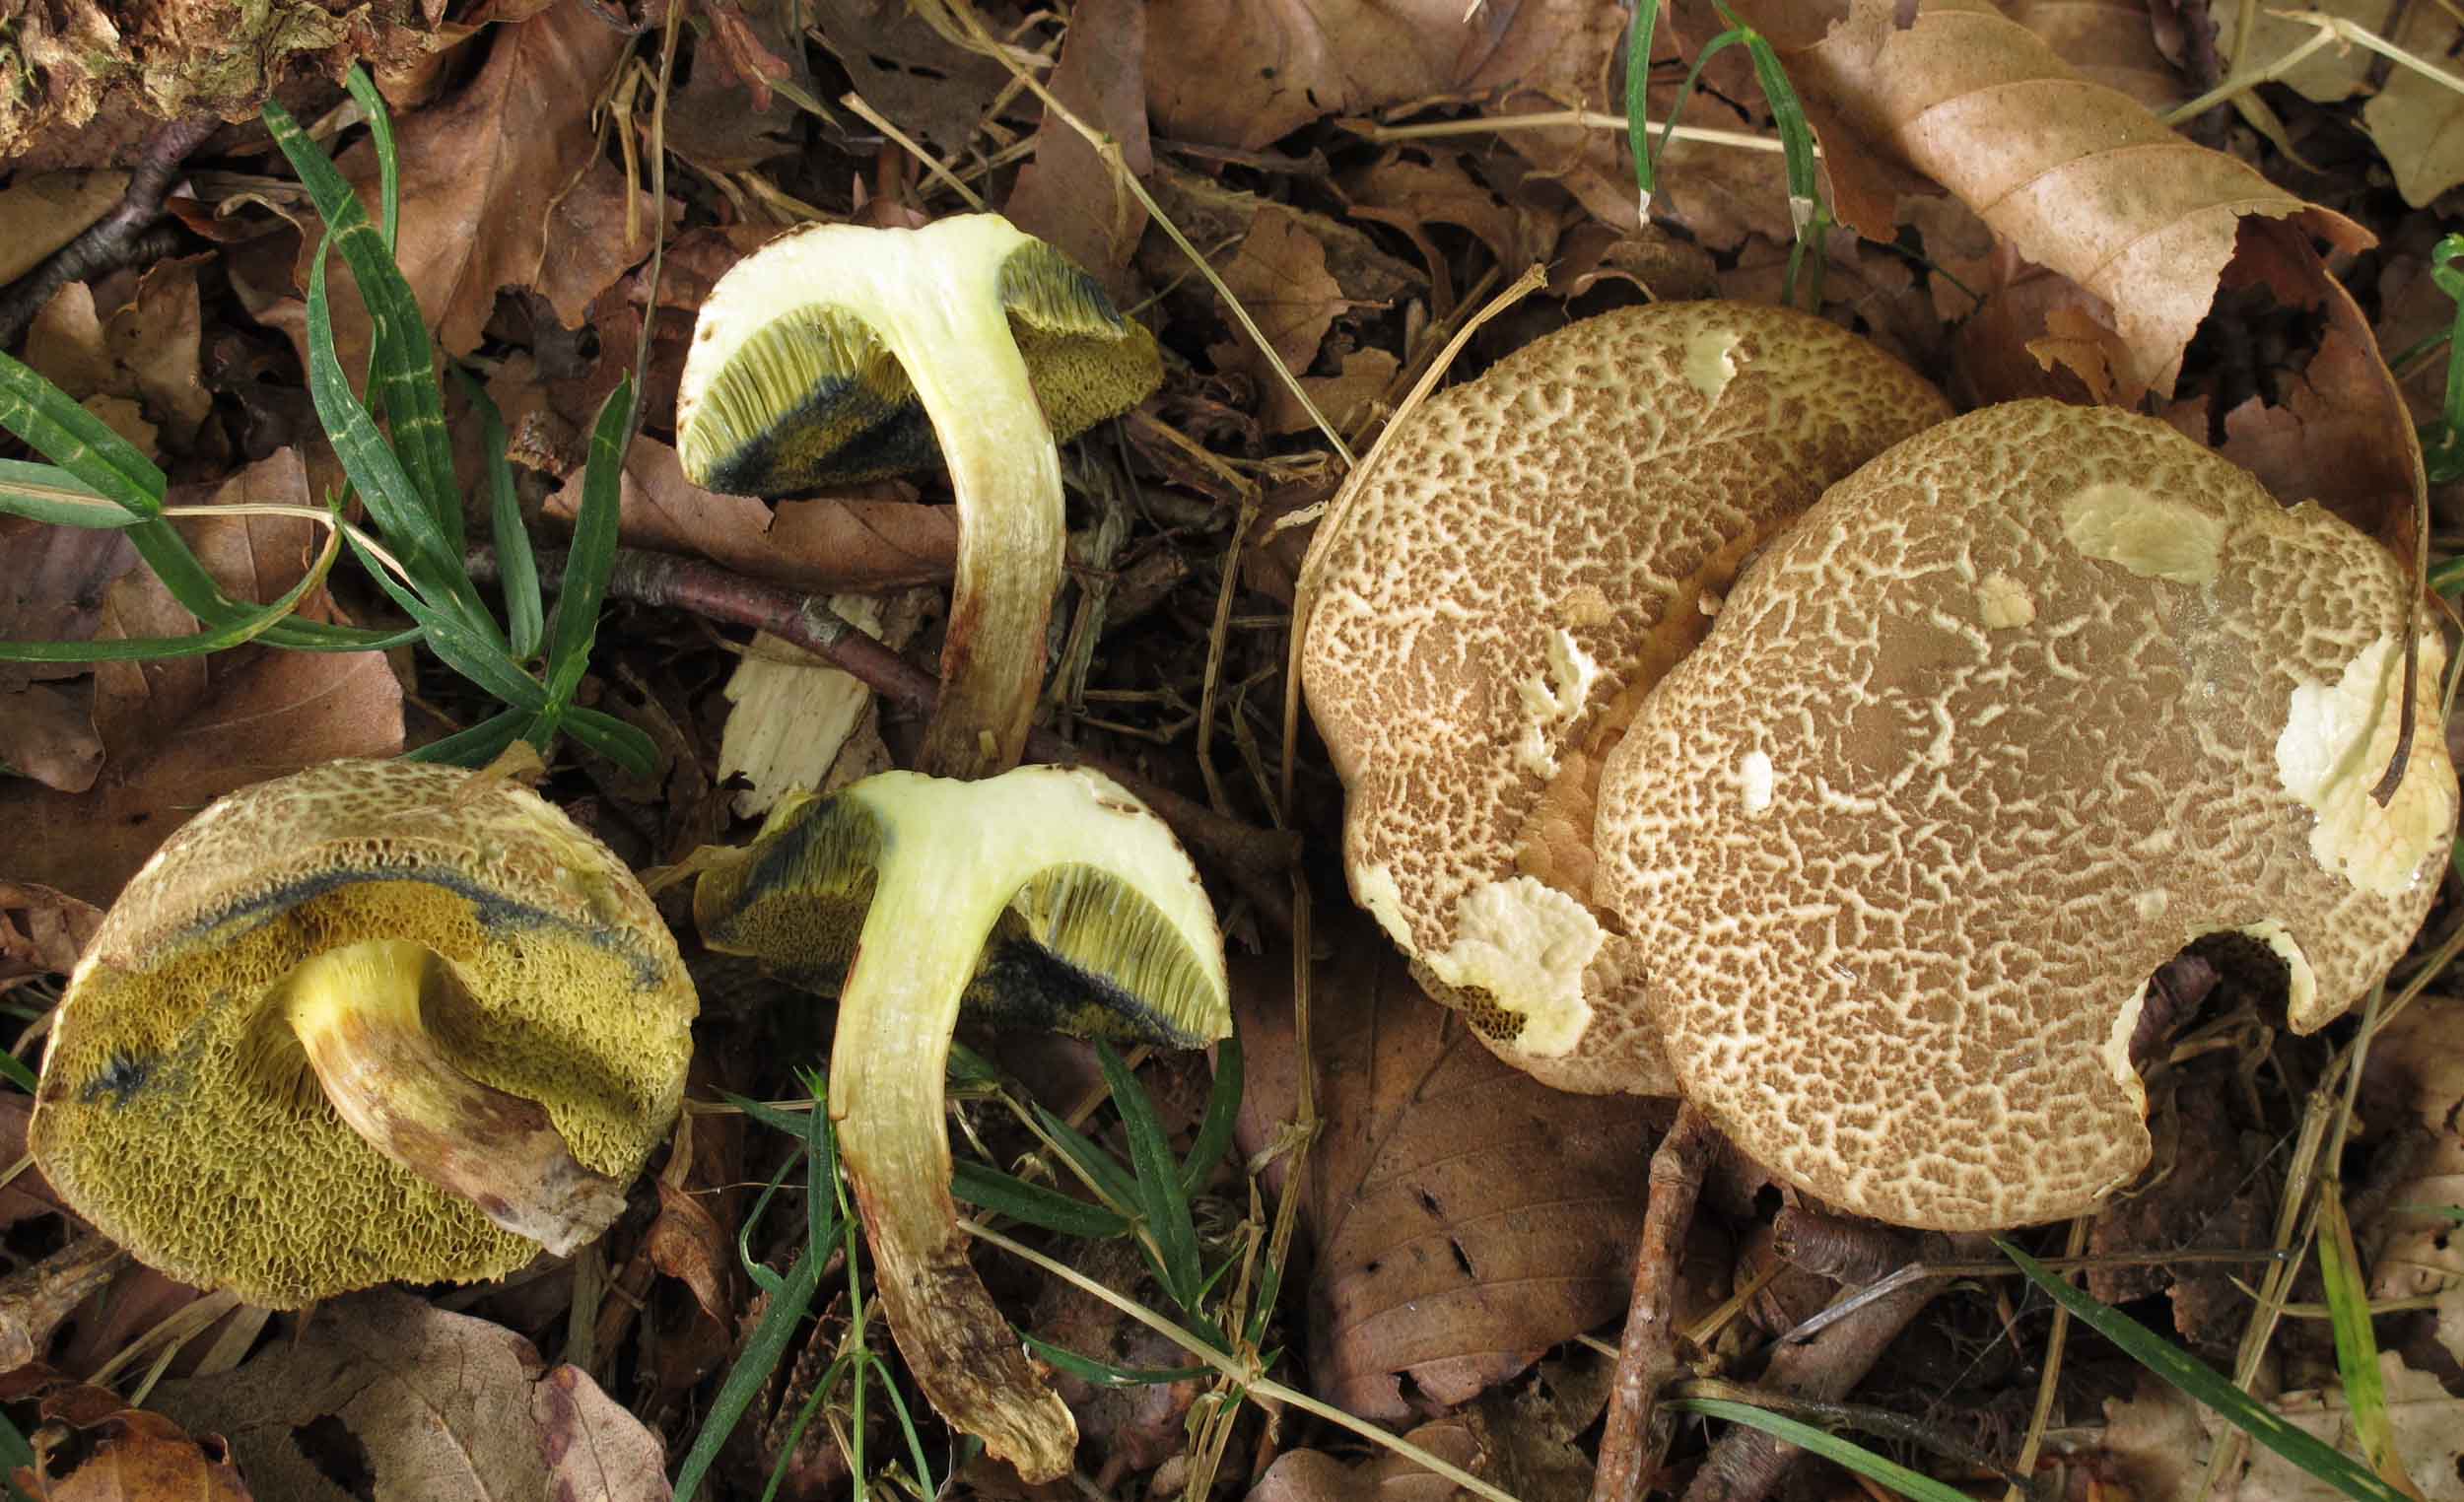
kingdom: Fungi
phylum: Basidiomycota
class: Agaricomycetes
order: Boletales
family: Boletaceae
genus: Xerocomellus
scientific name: Xerocomellus porosporus
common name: hvidsprukken rørhat
